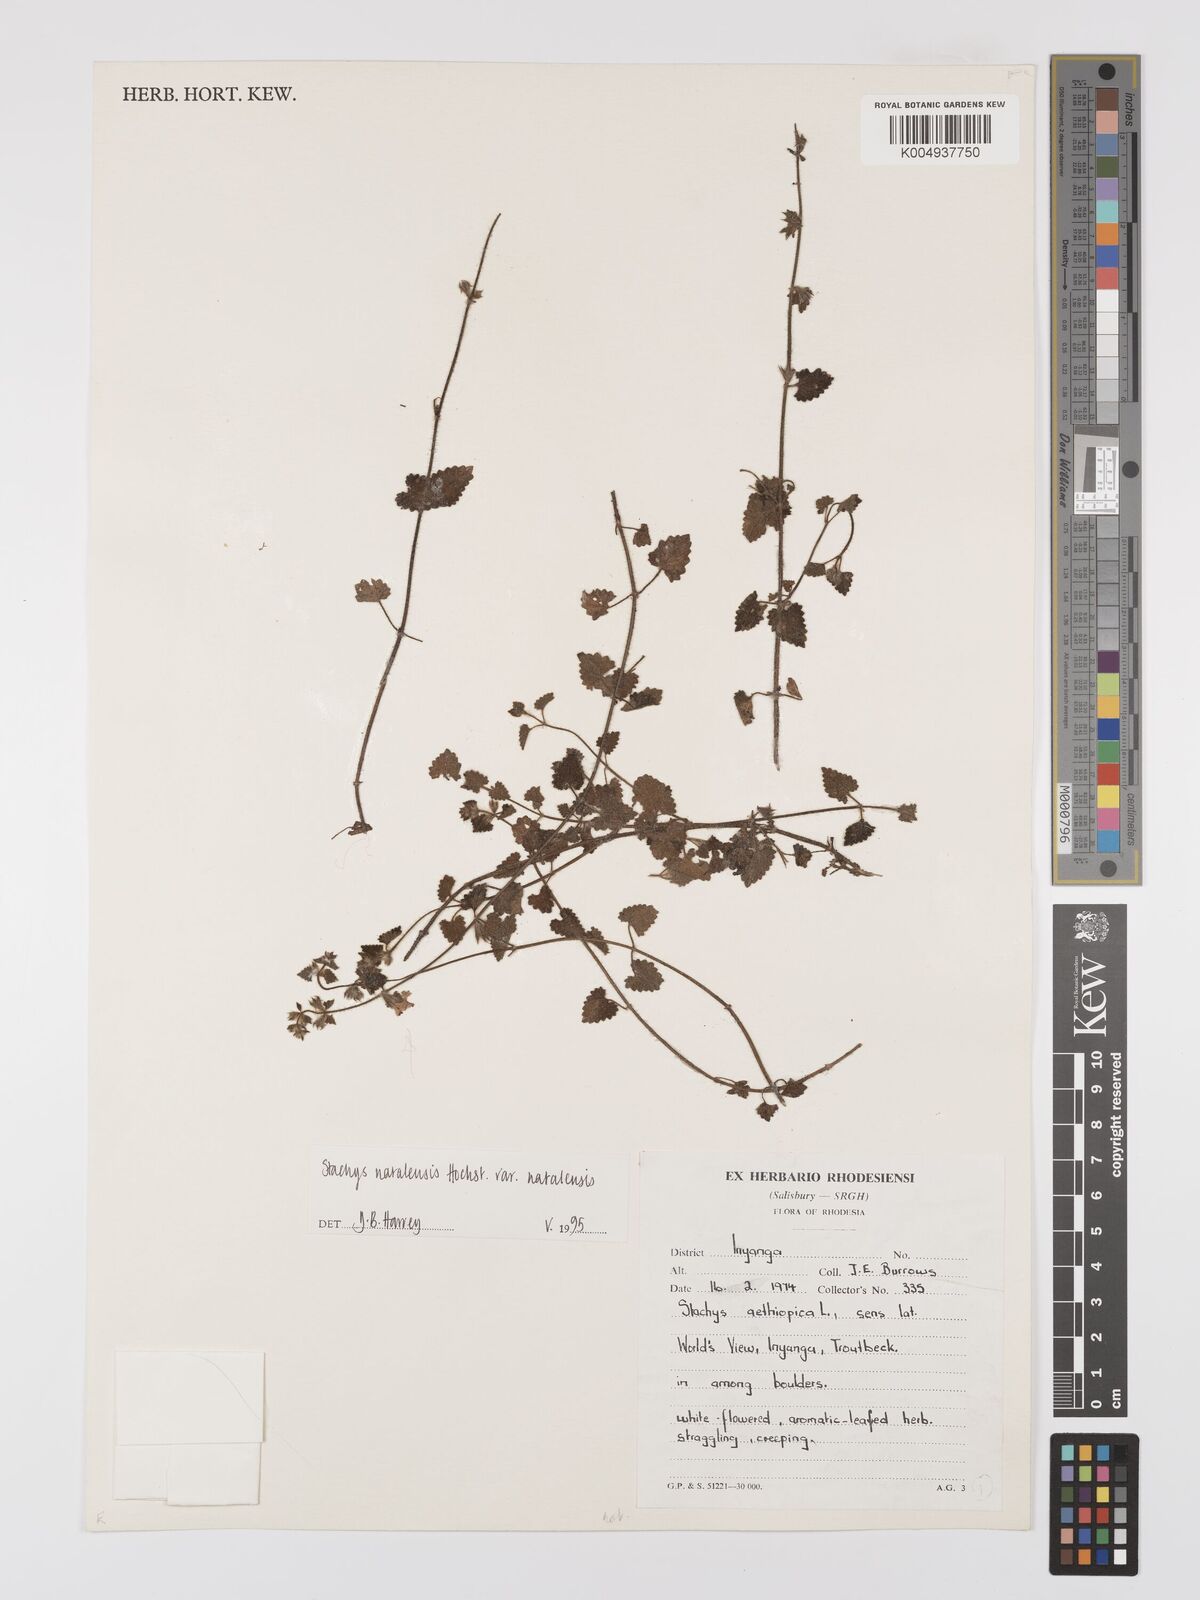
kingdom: Plantae
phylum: Tracheophyta
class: Magnoliopsida
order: Lamiales
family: Lamiaceae
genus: Stachys
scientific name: Stachys natalensis
